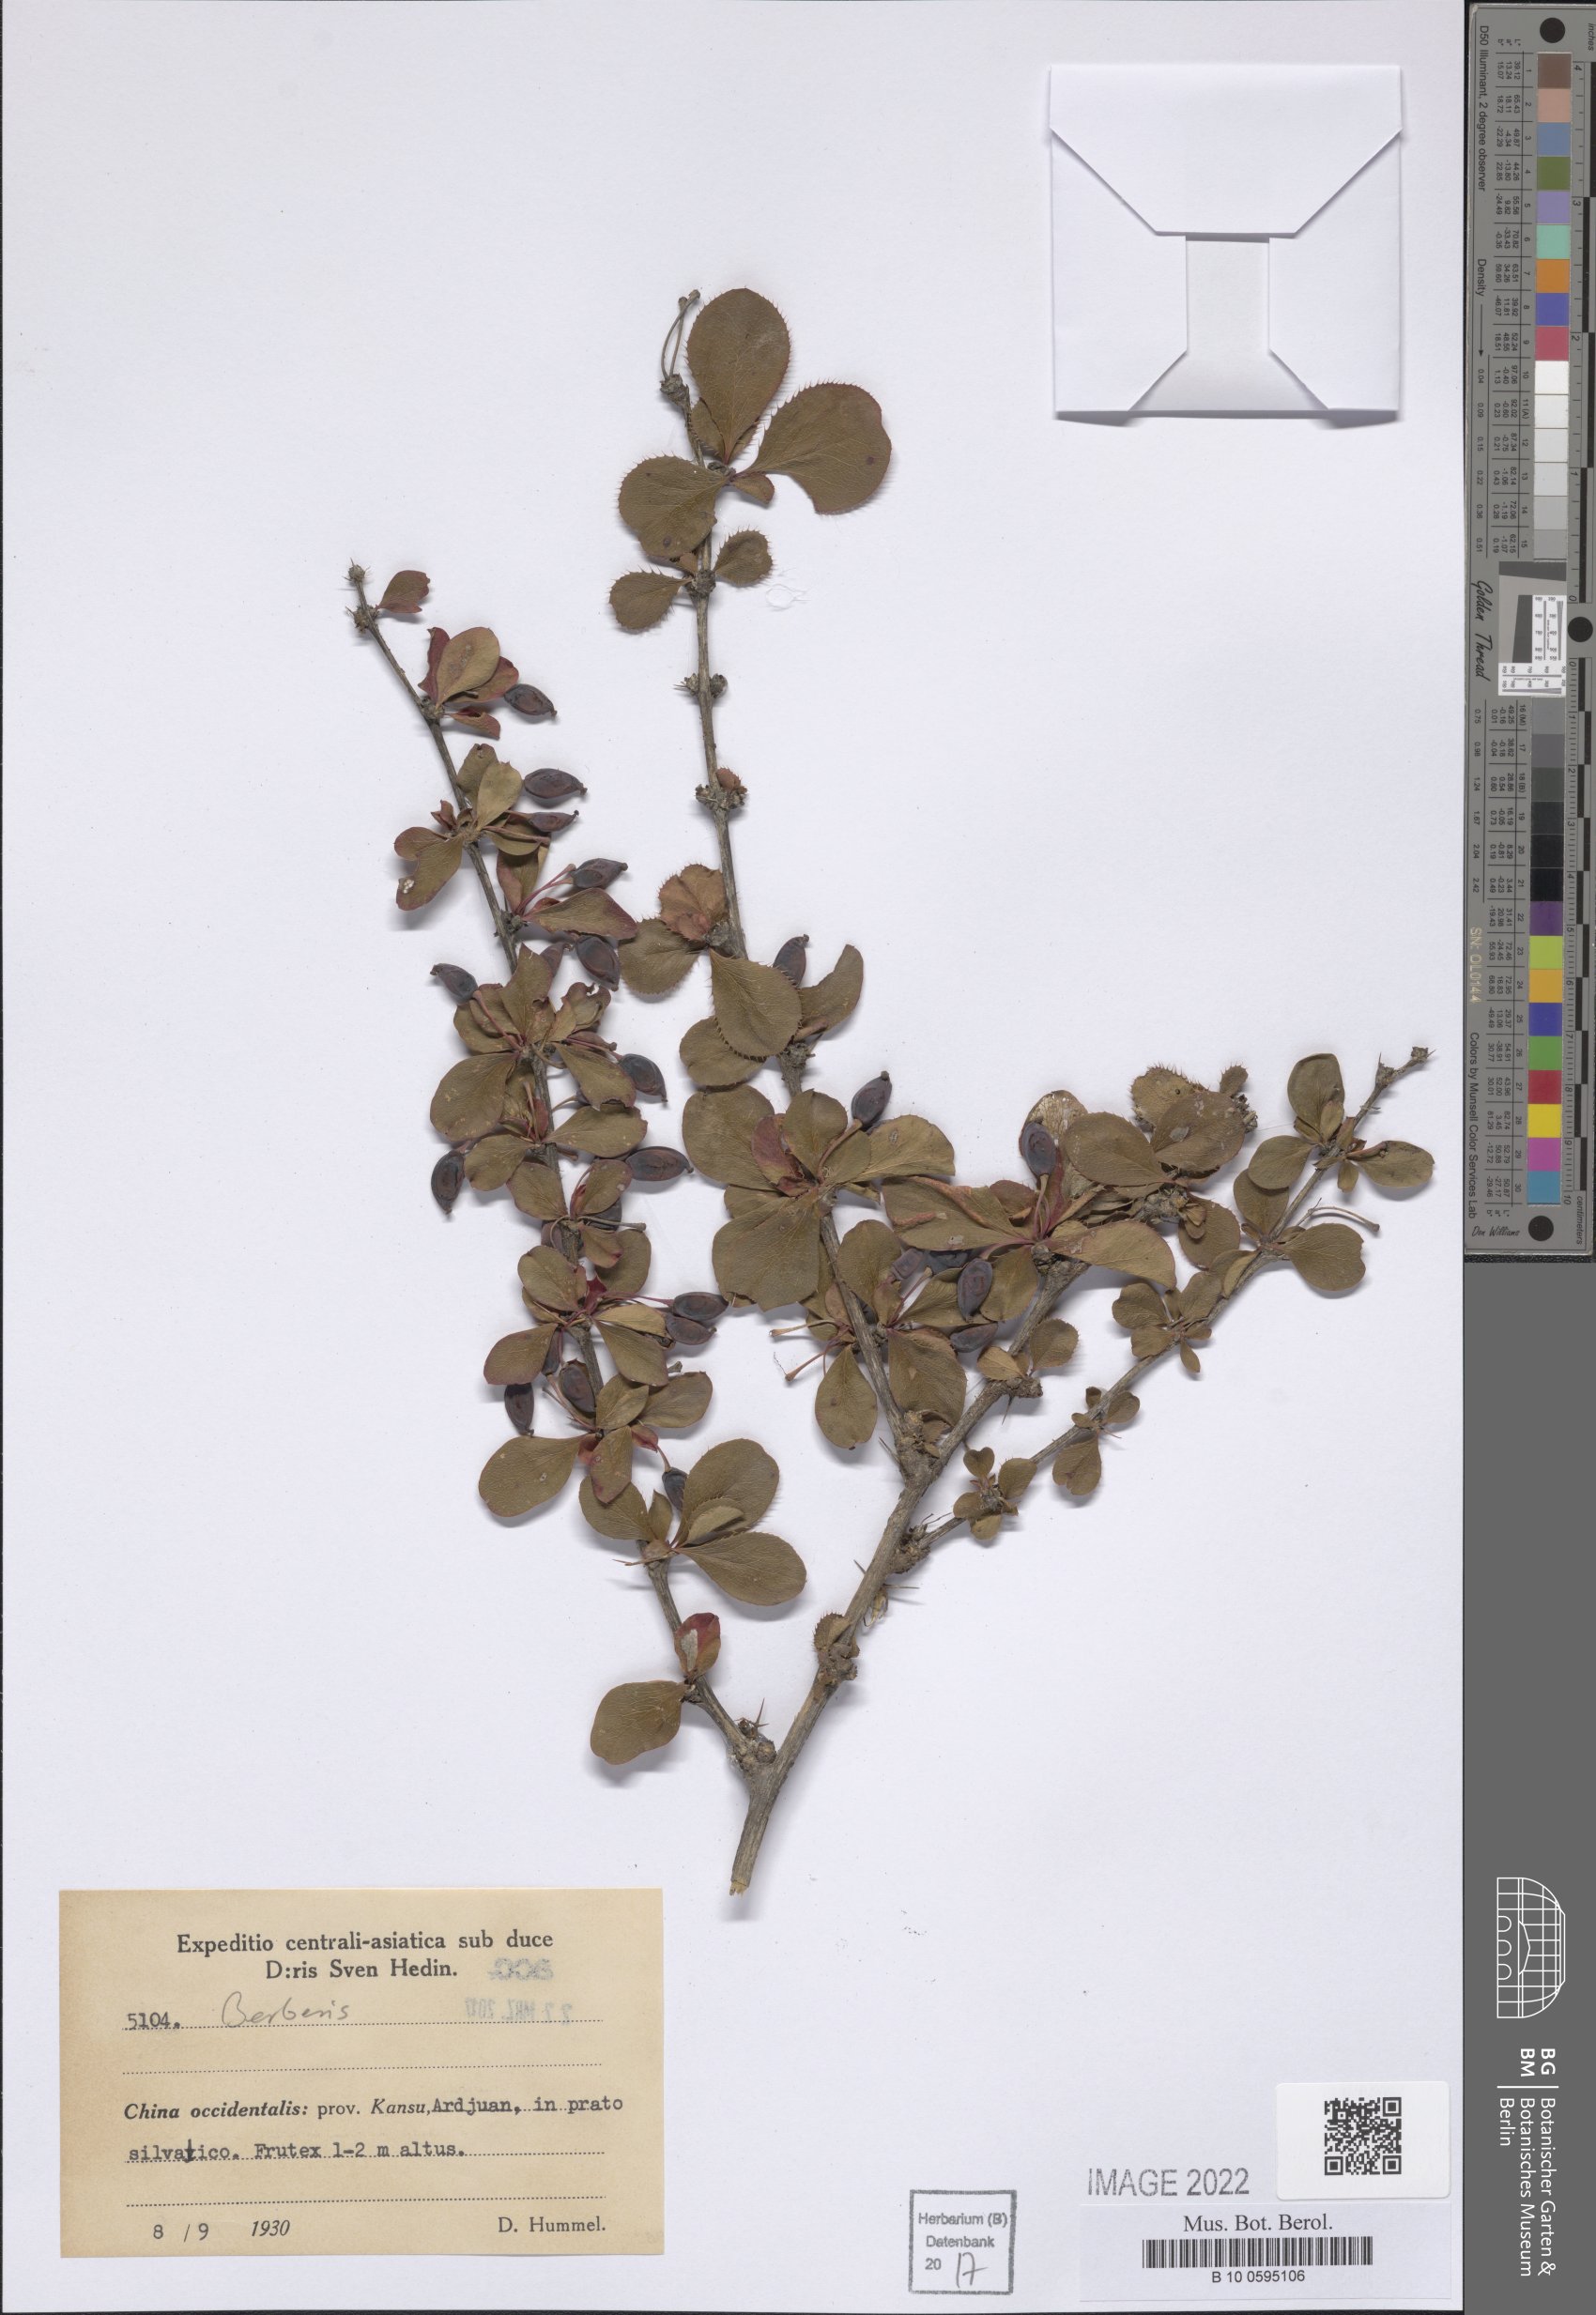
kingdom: Plantae
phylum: Tracheophyta
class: Magnoliopsida
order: Ranunculales
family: Berberidaceae
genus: Berberis
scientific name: Berberis
